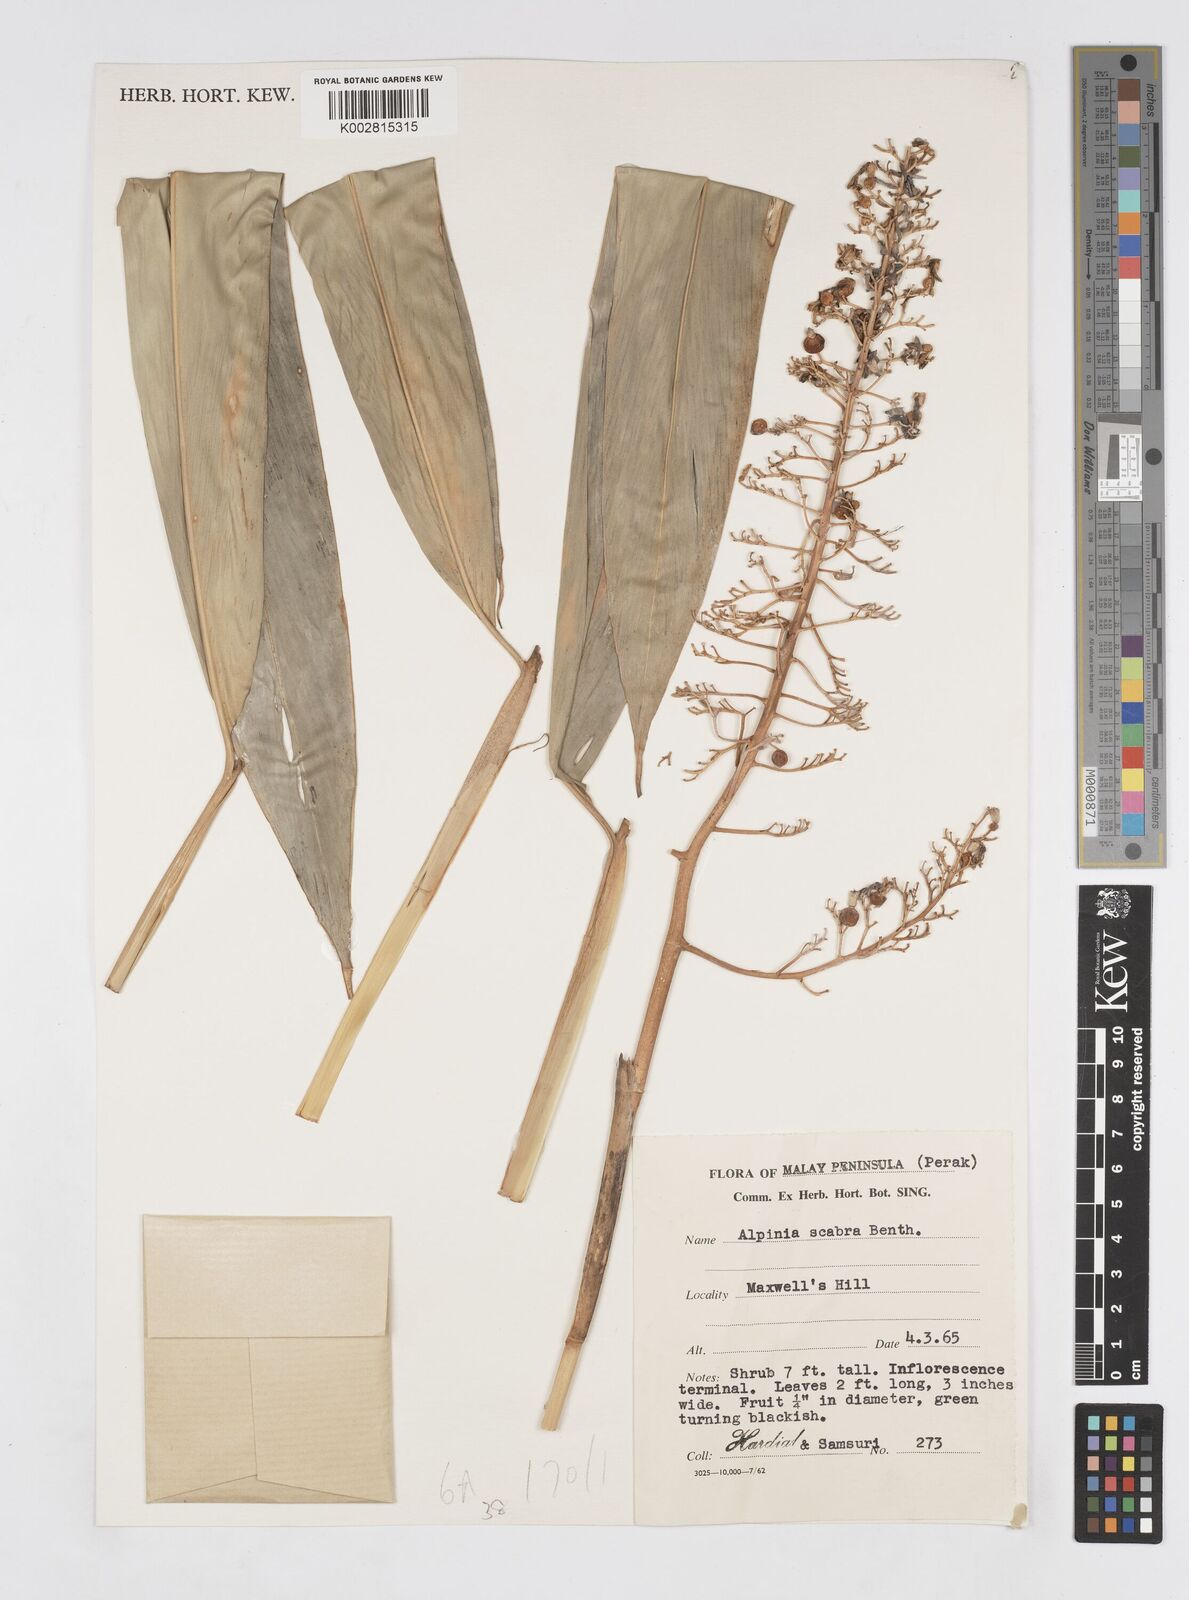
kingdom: Plantae
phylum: Tracheophyta
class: Liliopsida
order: Zingiberales
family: Zingiberaceae
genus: Alpinia
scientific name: Alpinia scabra
